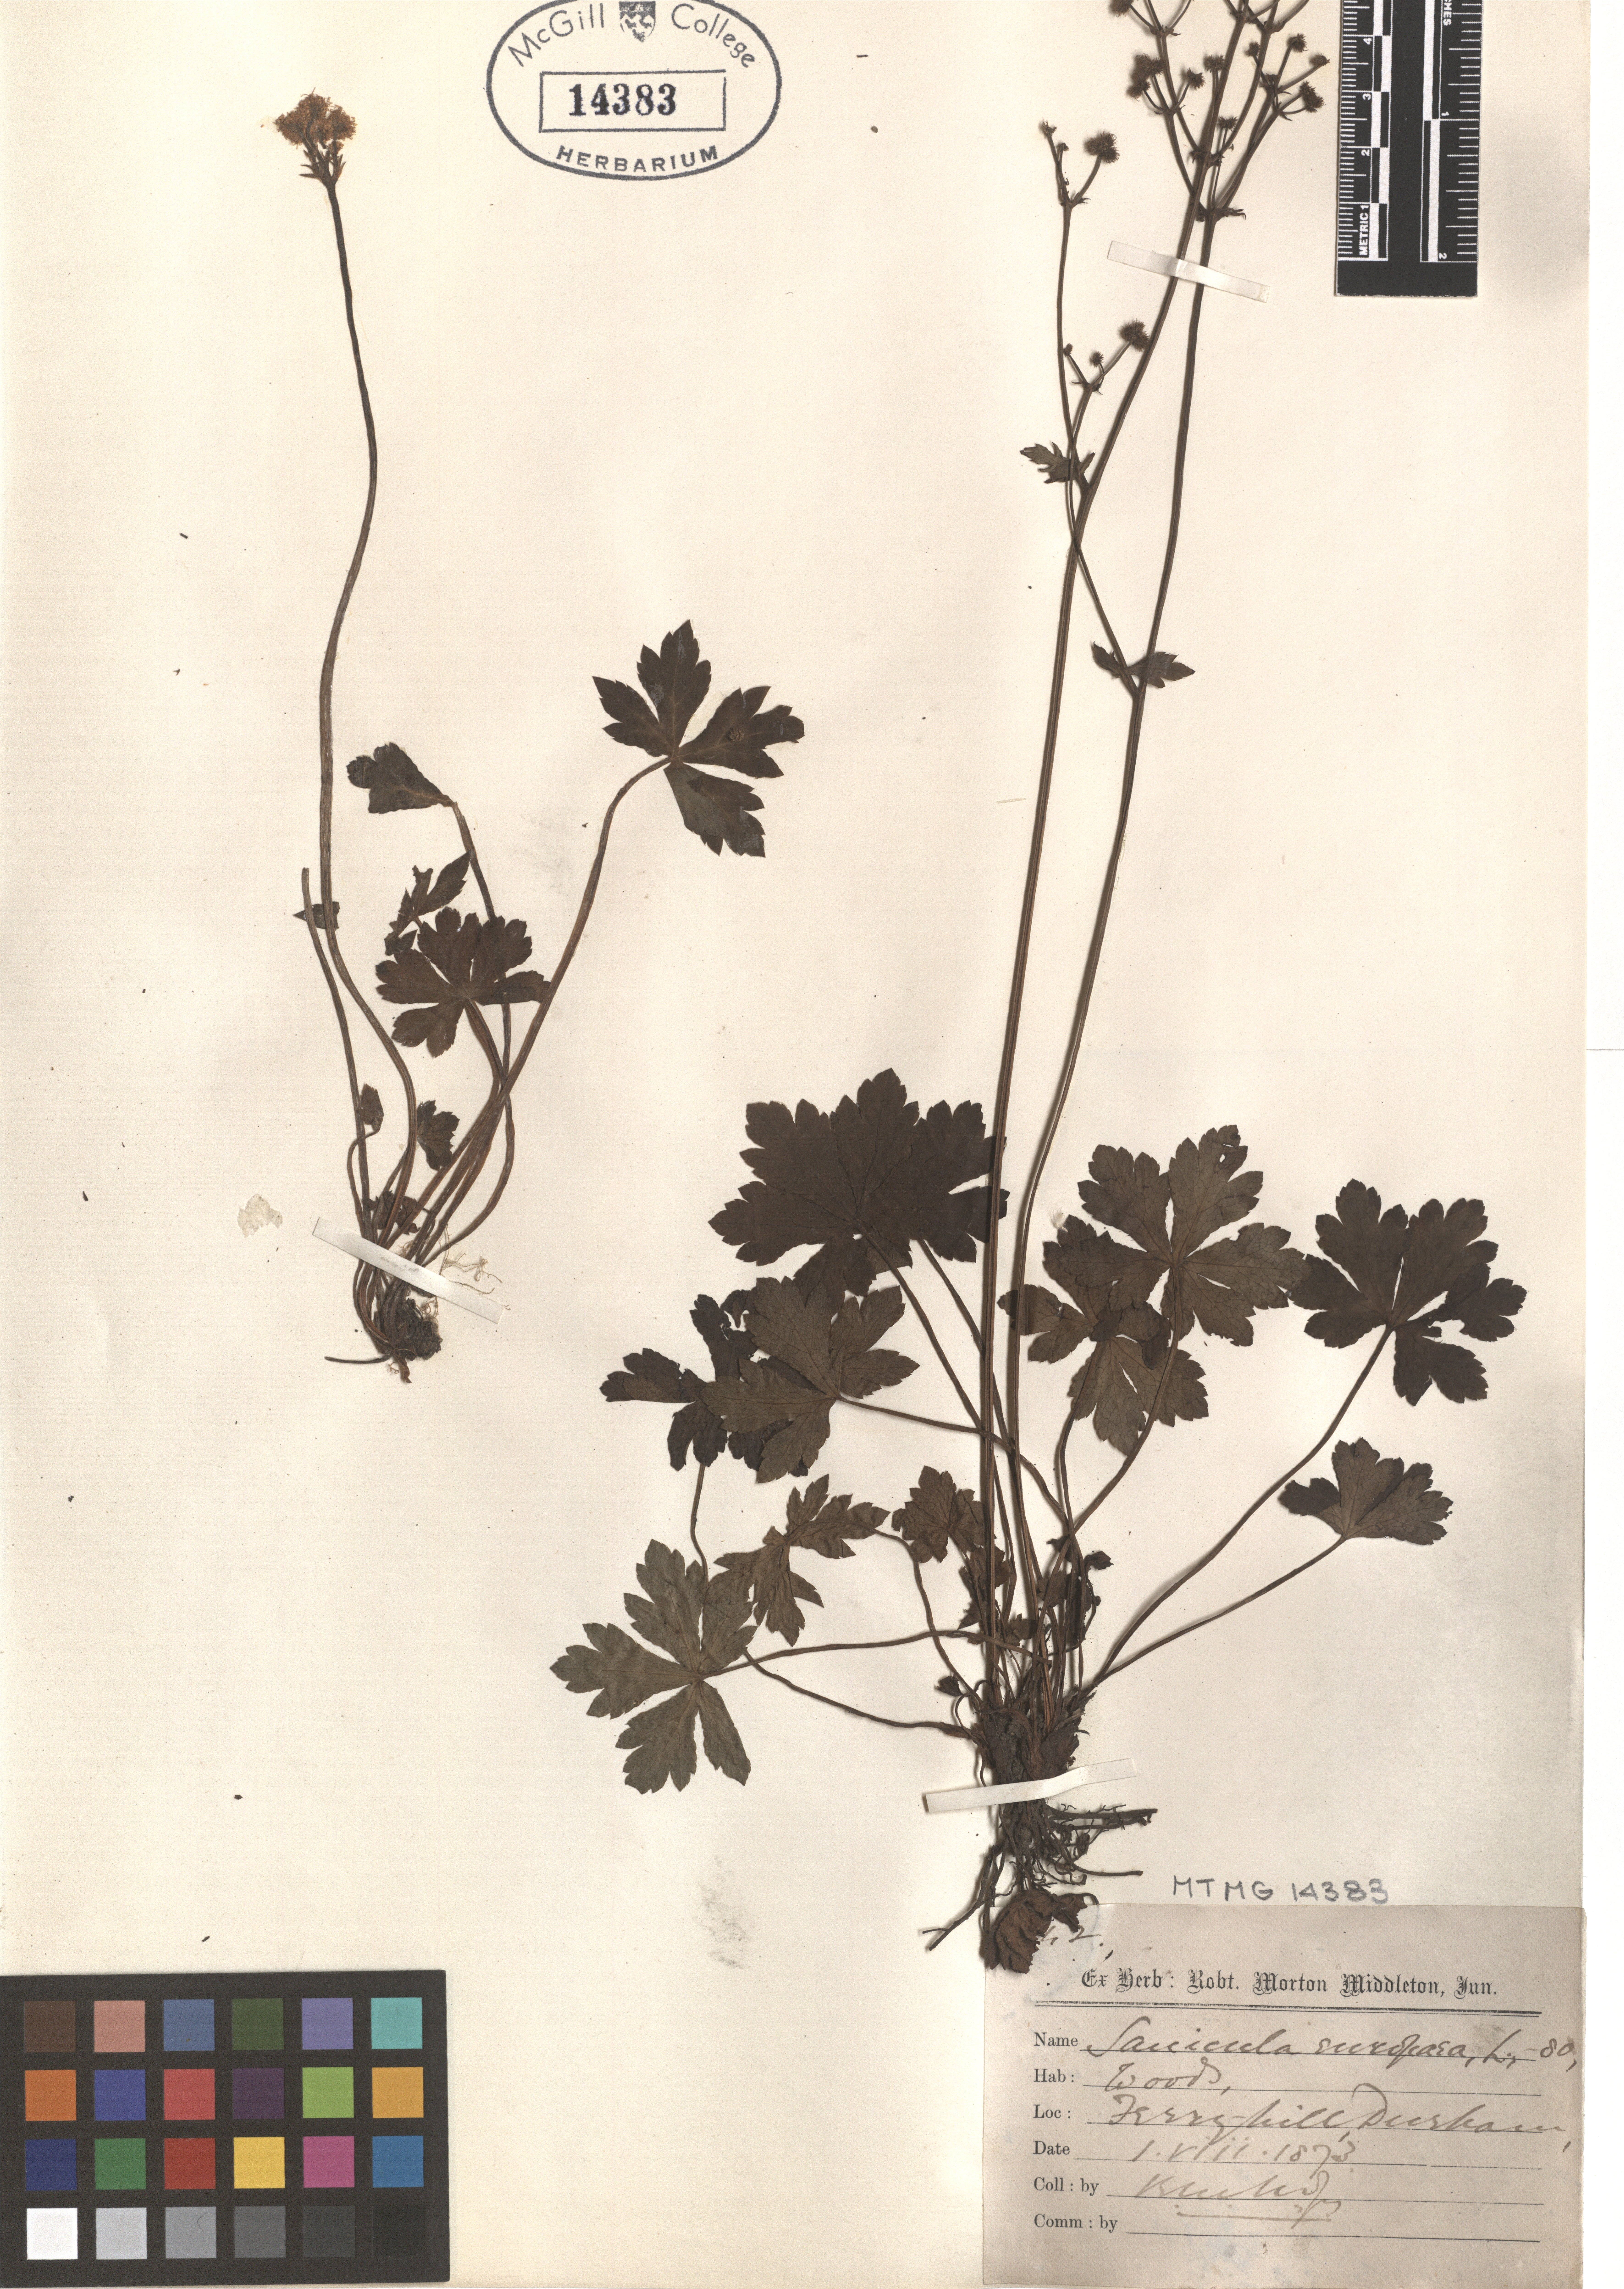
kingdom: Plantae
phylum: Tracheophyta
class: Magnoliopsida
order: Apiales
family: Apiaceae
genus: Sanicula
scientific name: Sanicula elata
